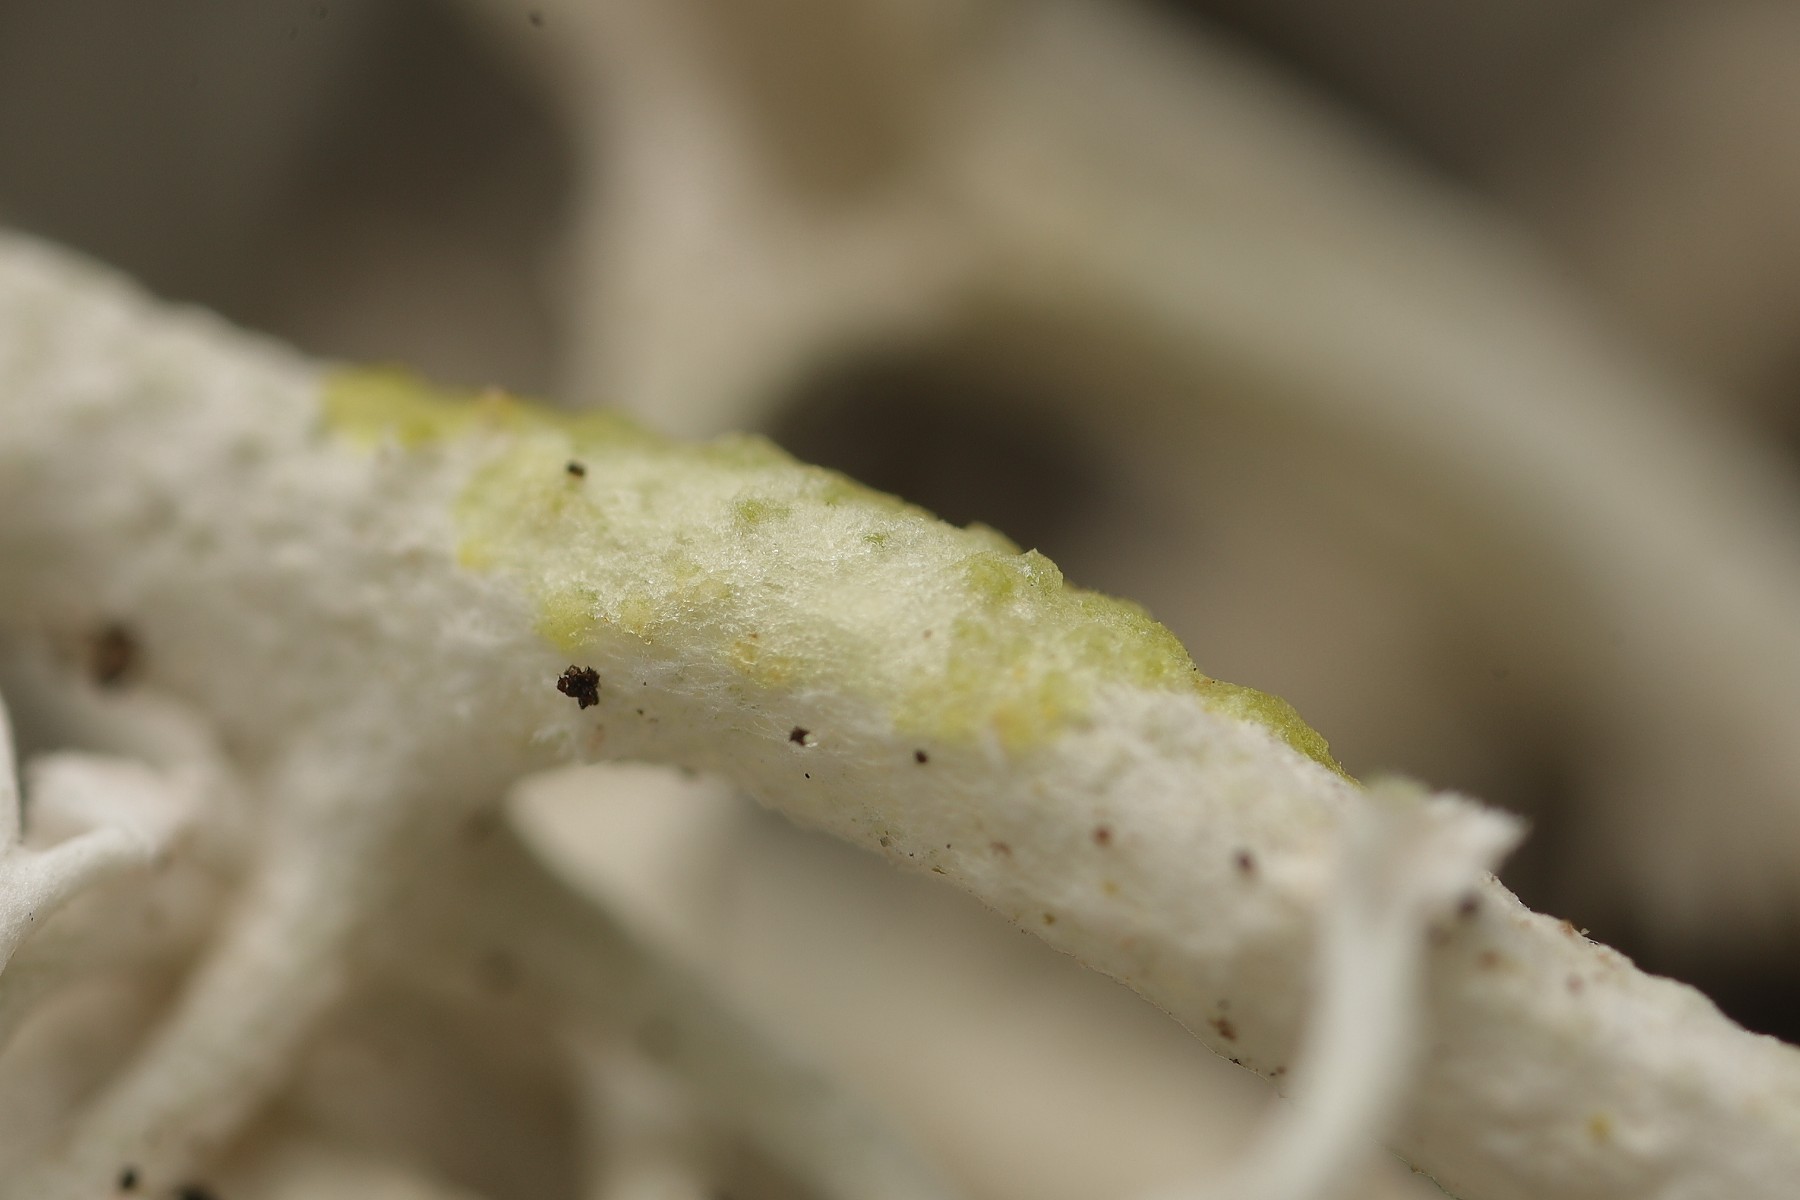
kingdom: Fungi
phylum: Ascomycota
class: Lecanoromycetes
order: Lecanorales
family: Cladoniaceae
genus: Cladonia
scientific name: Cladonia rangiferina
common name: askegrå rensdyrlav
